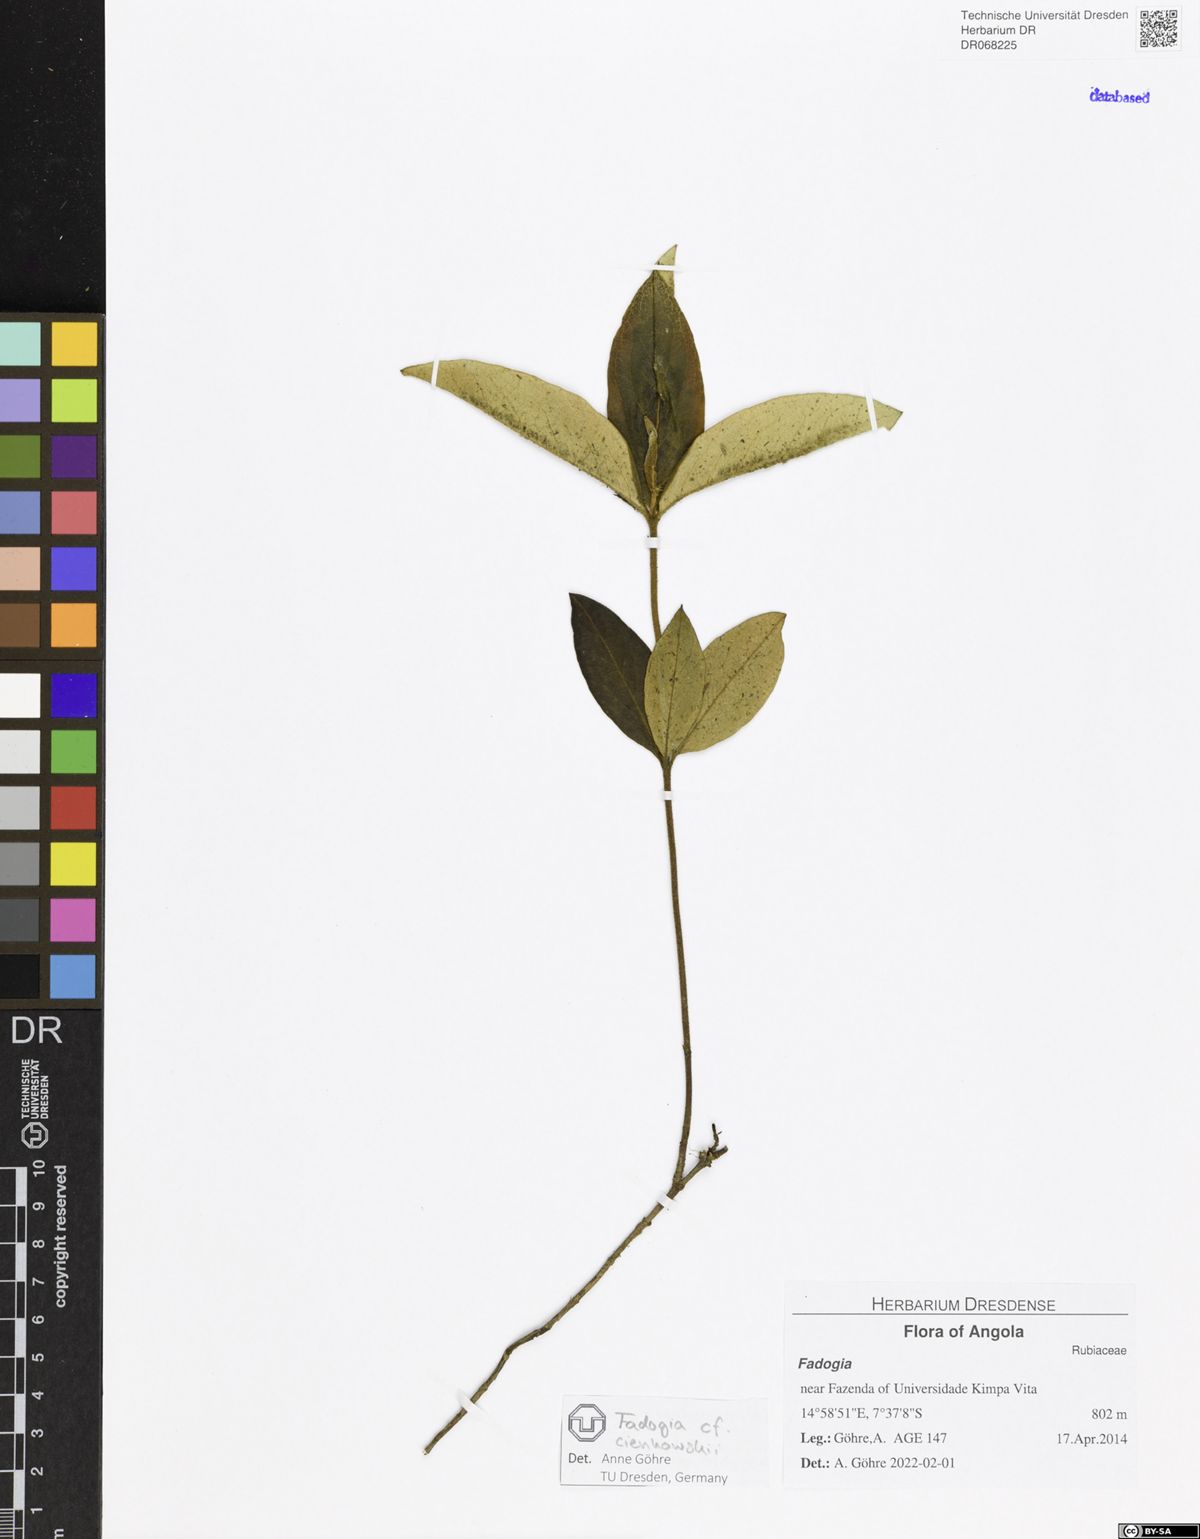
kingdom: Plantae
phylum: Tracheophyta
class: Magnoliopsida
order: Gentianales
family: Rubiaceae
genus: Fadogia
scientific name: Fadogia
